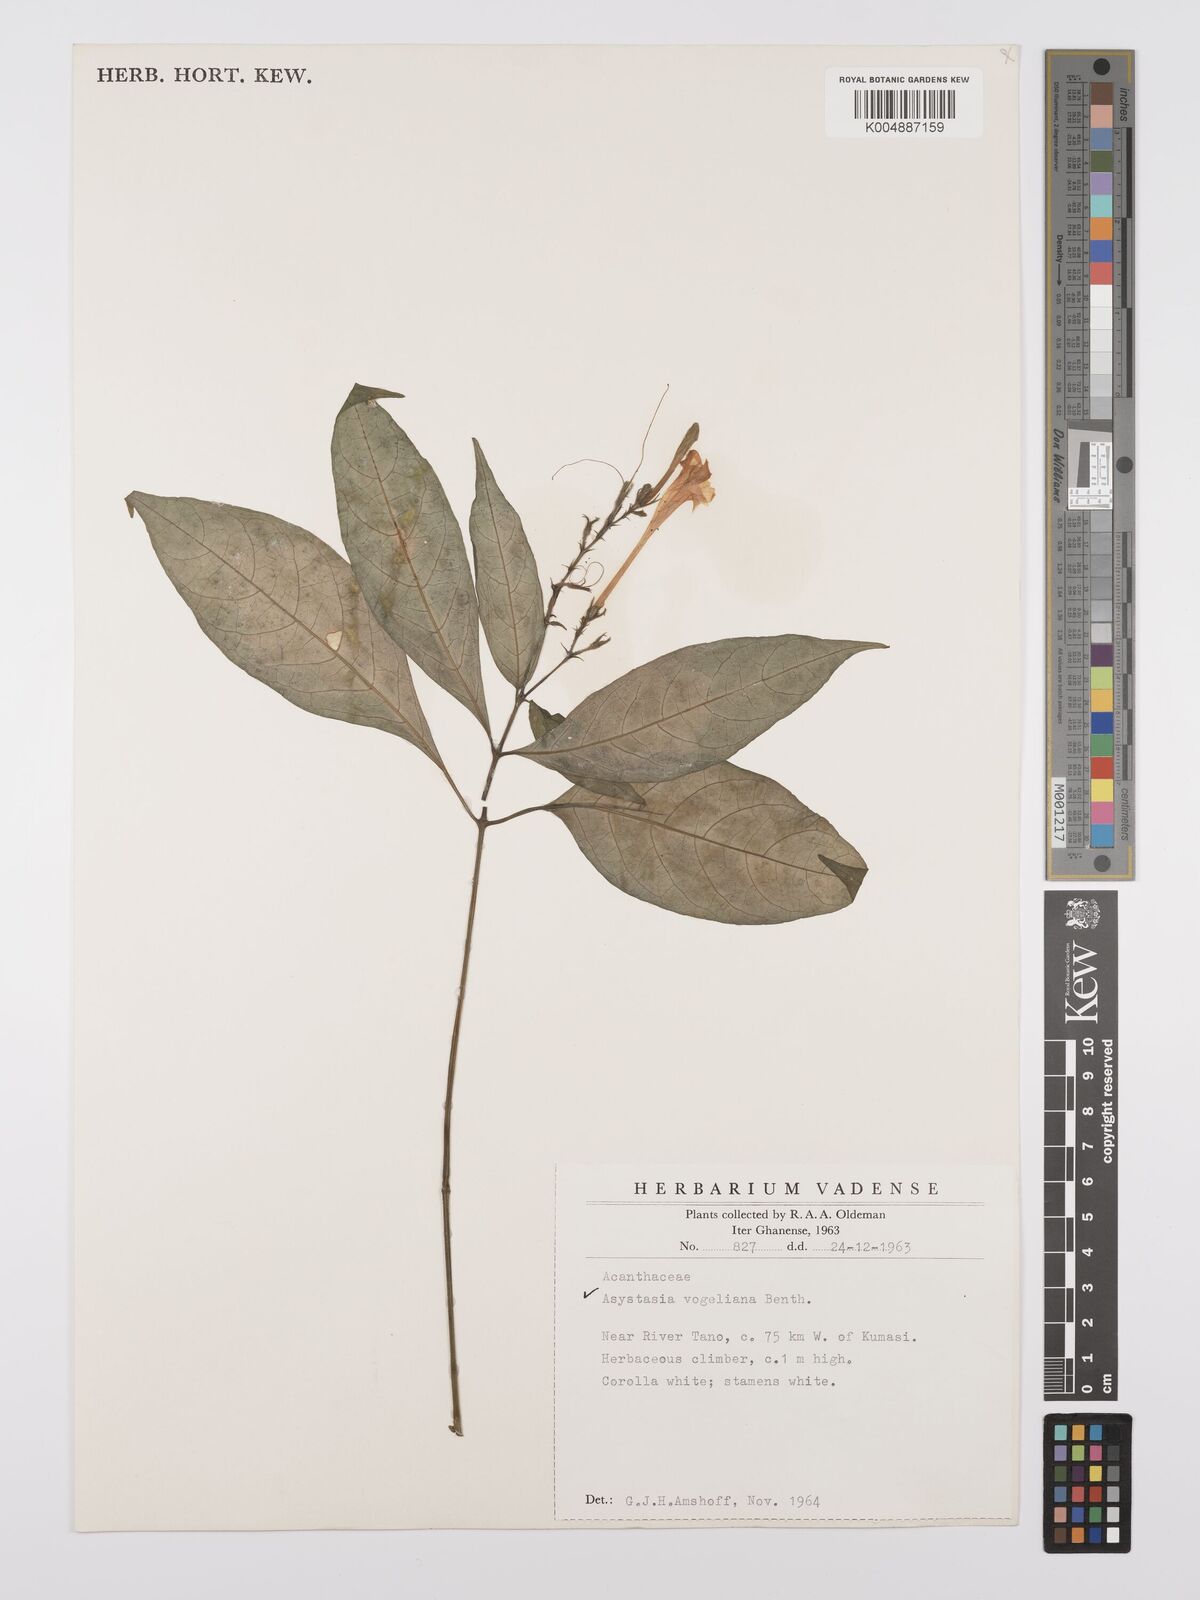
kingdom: Plantae
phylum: Tracheophyta
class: Magnoliopsida
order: Lamiales
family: Acanthaceae
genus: Asystasia
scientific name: Asystasia vogeliana
